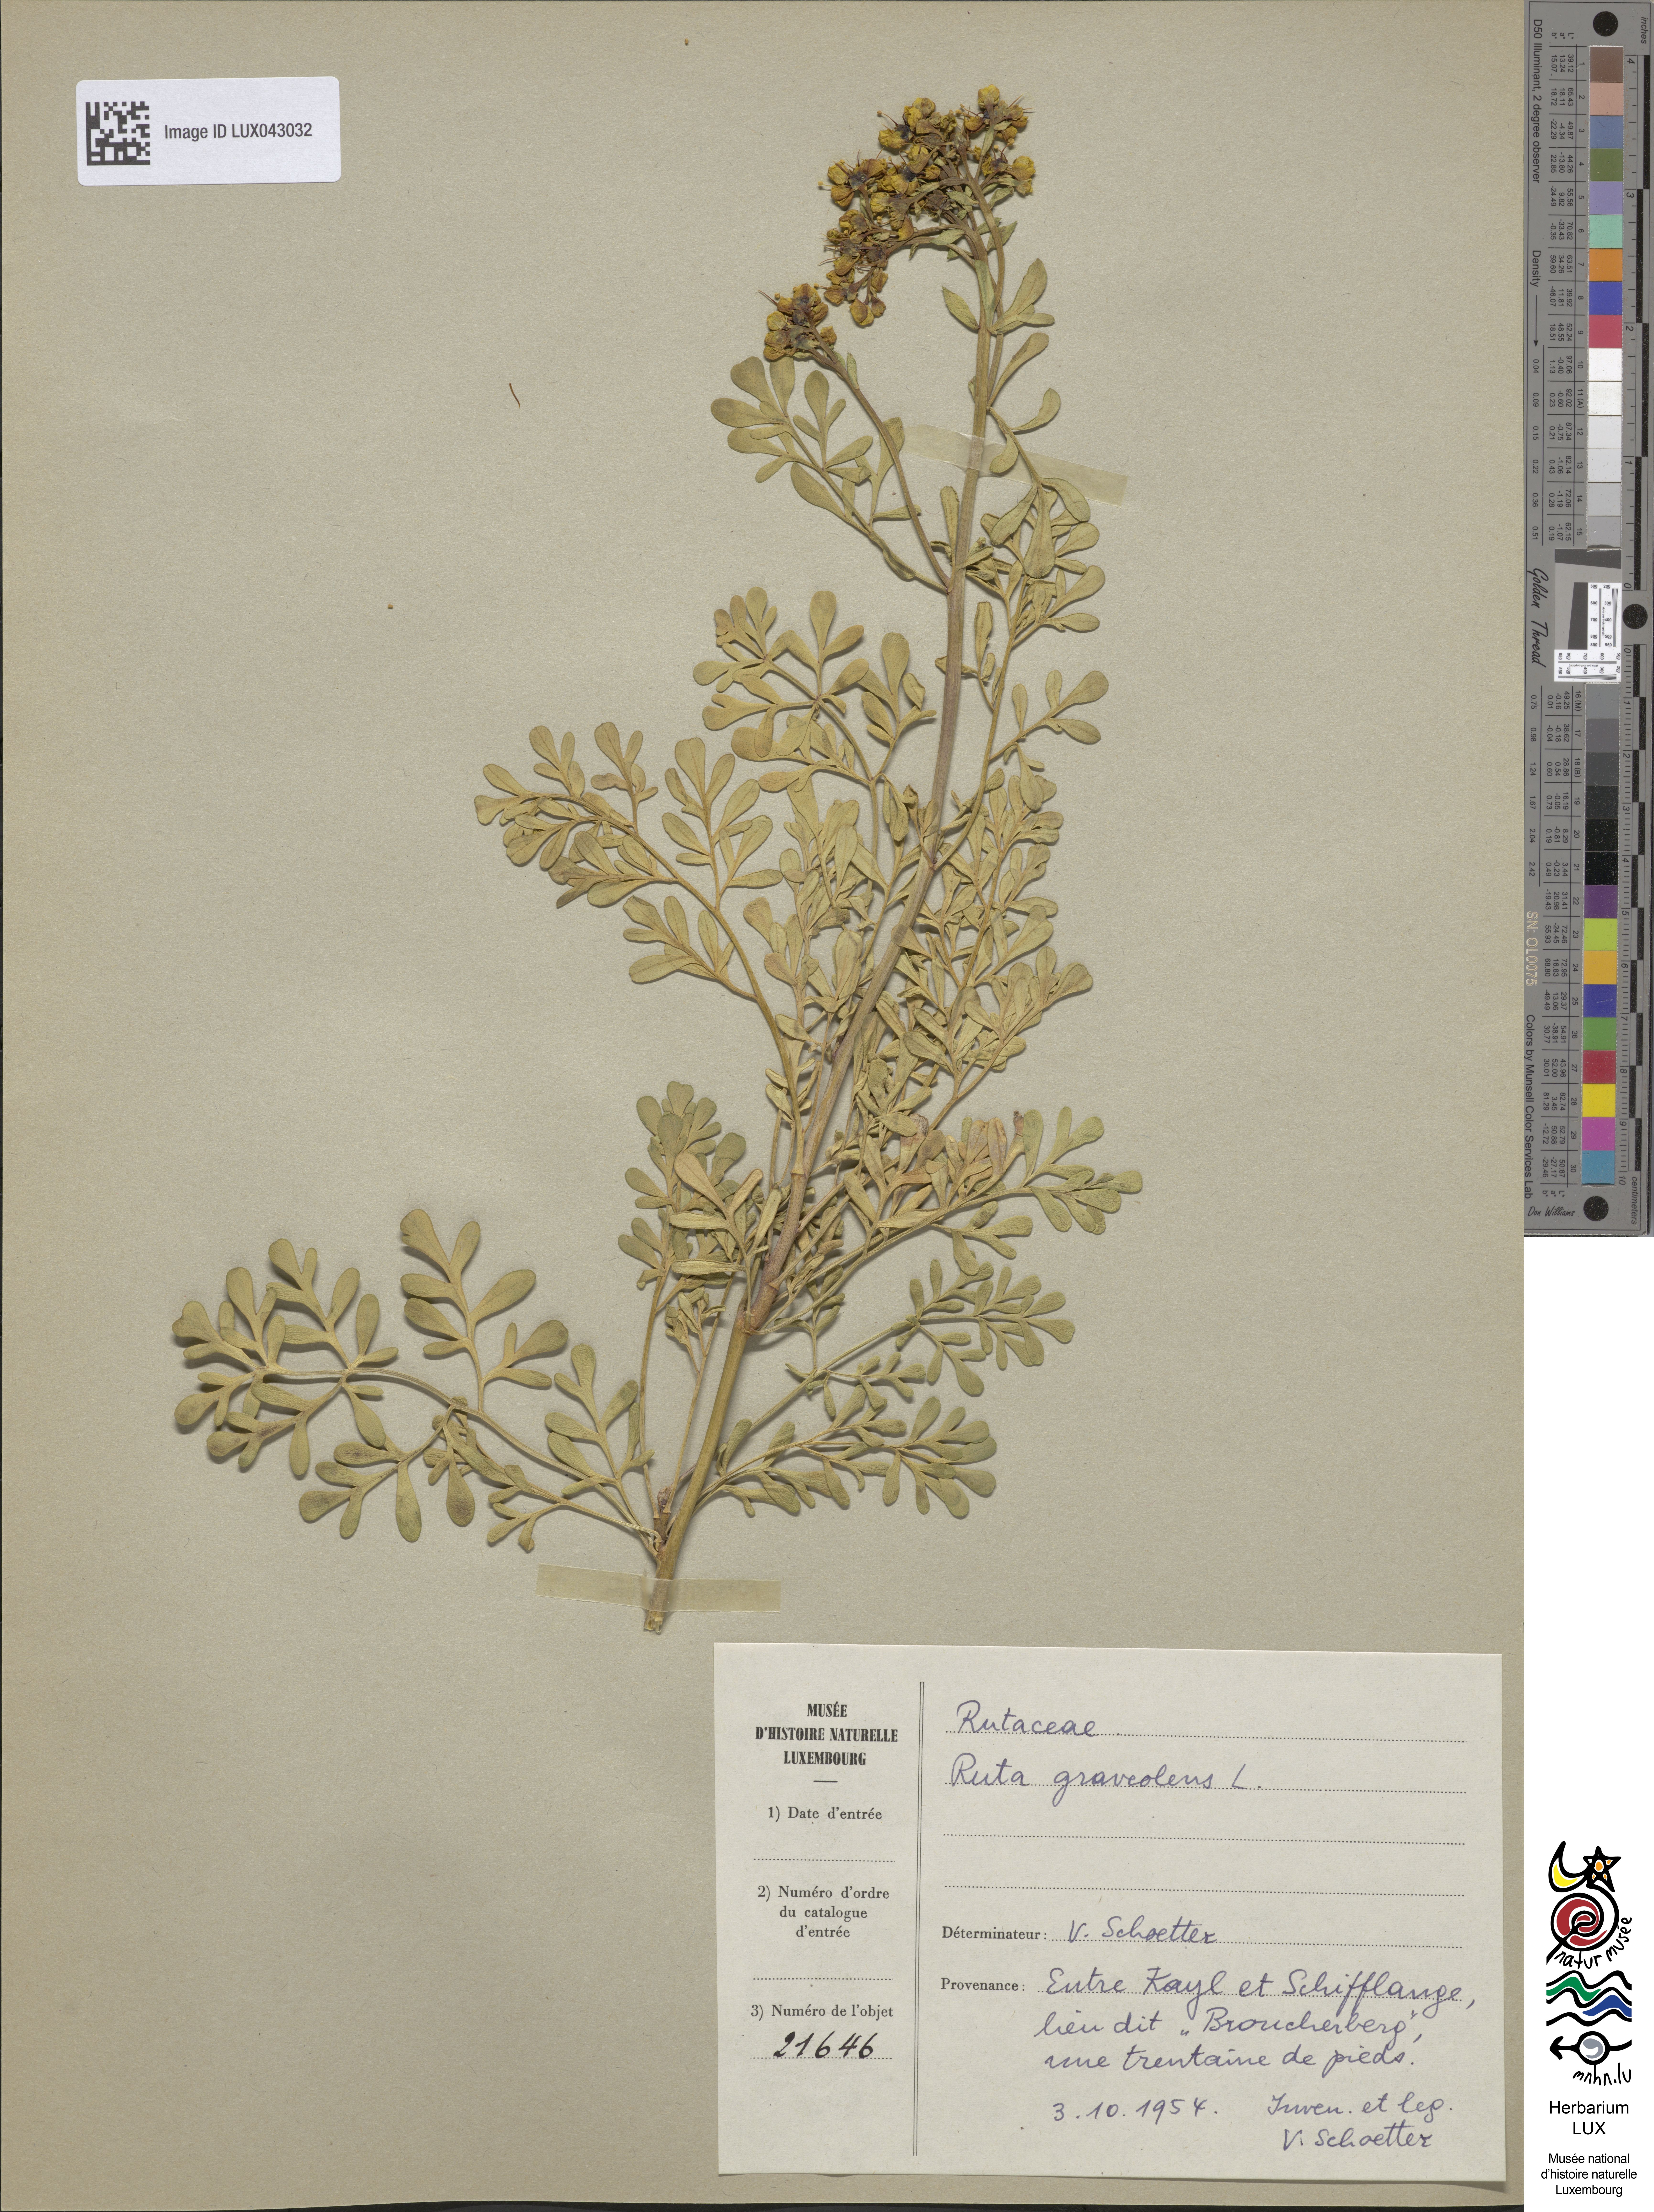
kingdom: Plantae
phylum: Tracheophyta
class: Magnoliopsida
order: Sapindales
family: Rutaceae
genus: Ruta
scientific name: Ruta graveolens
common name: Common rue
